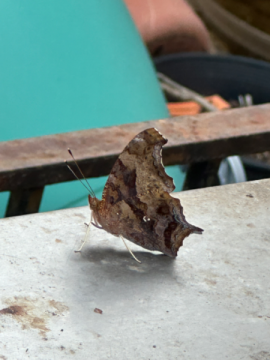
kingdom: Animalia
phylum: Arthropoda
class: Insecta
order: Lepidoptera
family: Nymphalidae
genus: Polygonia
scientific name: Polygonia interrogationis
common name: Question Mark
